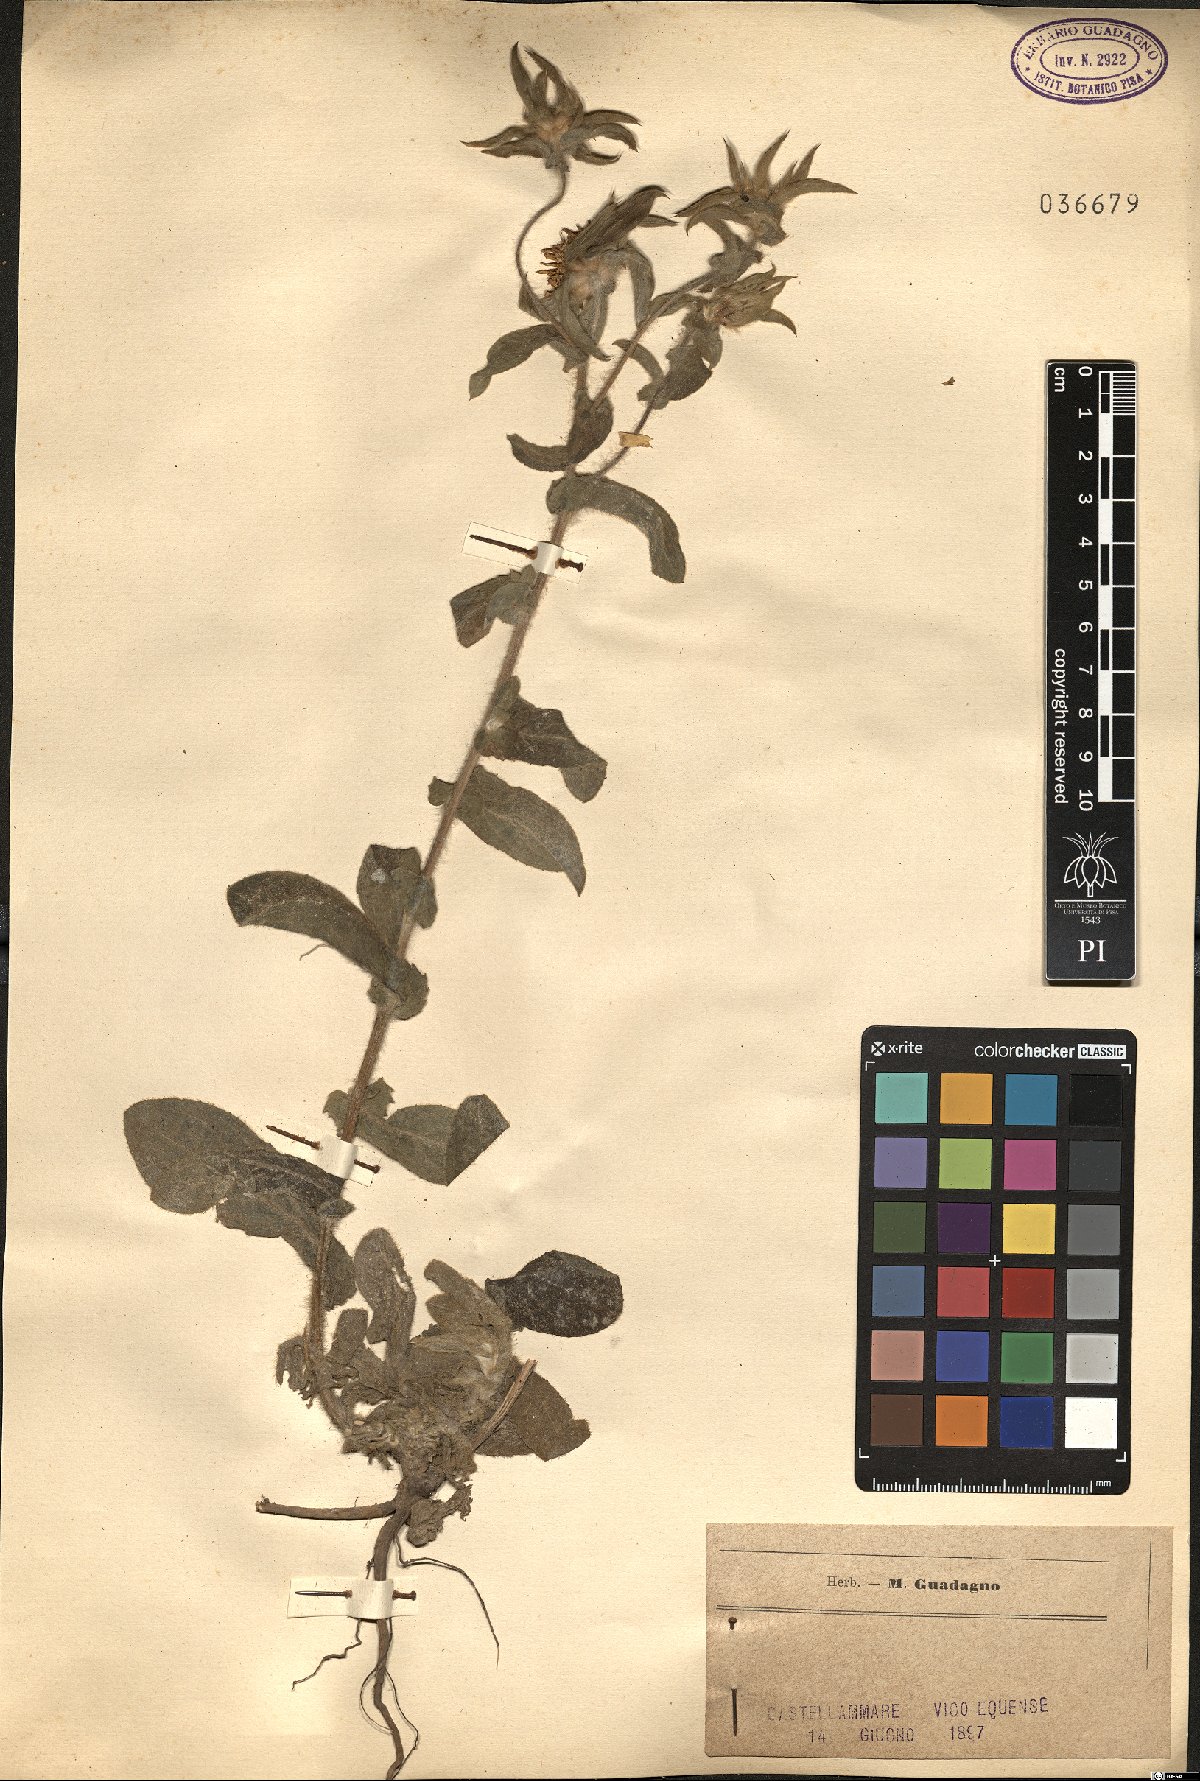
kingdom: Plantae
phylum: Tracheophyta
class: Magnoliopsida
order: Asterales
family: Asteraceae
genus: Asteriscus
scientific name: Asteriscus
